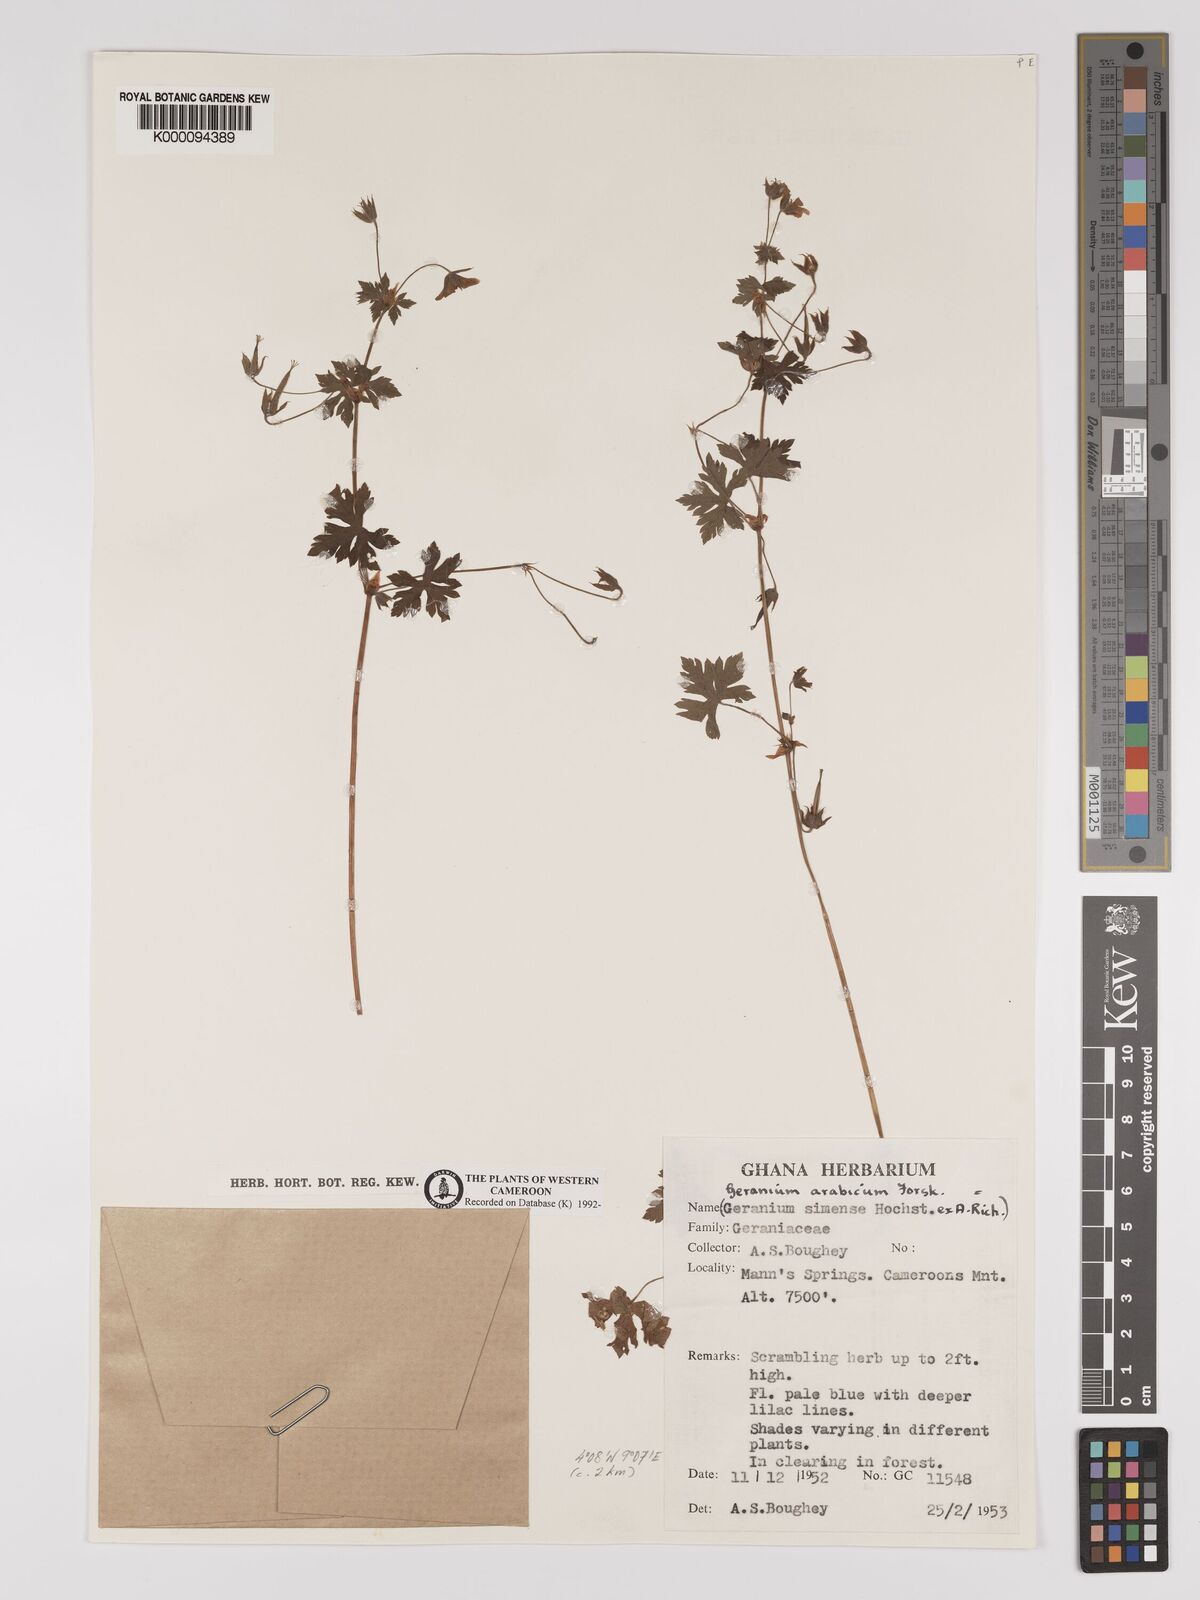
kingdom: Plantae
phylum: Tracheophyta
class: Magnoliopsida
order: Geraniales
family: Geraniaceae
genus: Geranium
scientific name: Geranium arabicum
